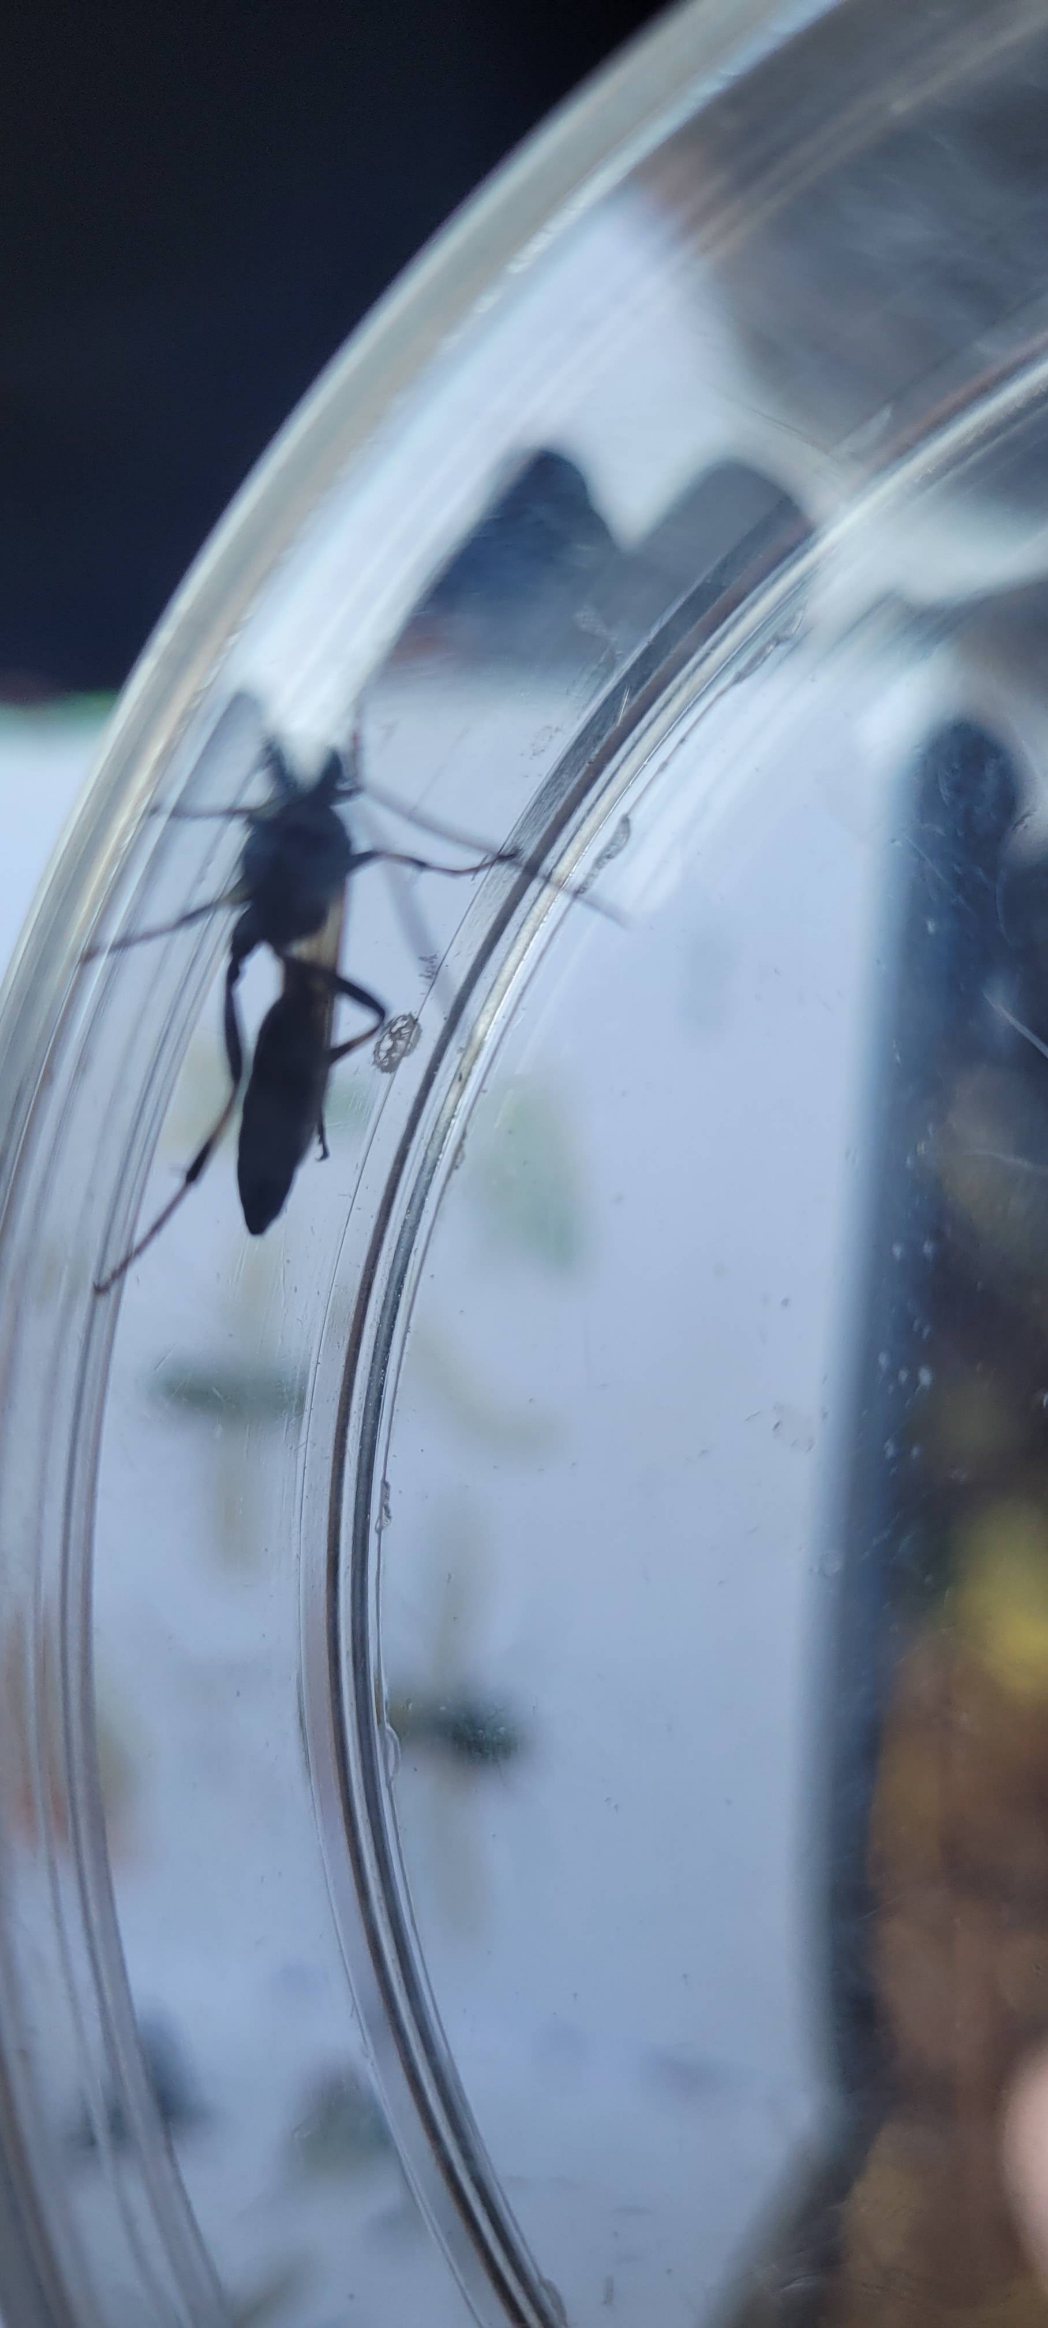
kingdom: Animalia
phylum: Arthropoda
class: Insecta
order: Hymenoptera
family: Ichneumonidae
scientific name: Ichneumonidae
